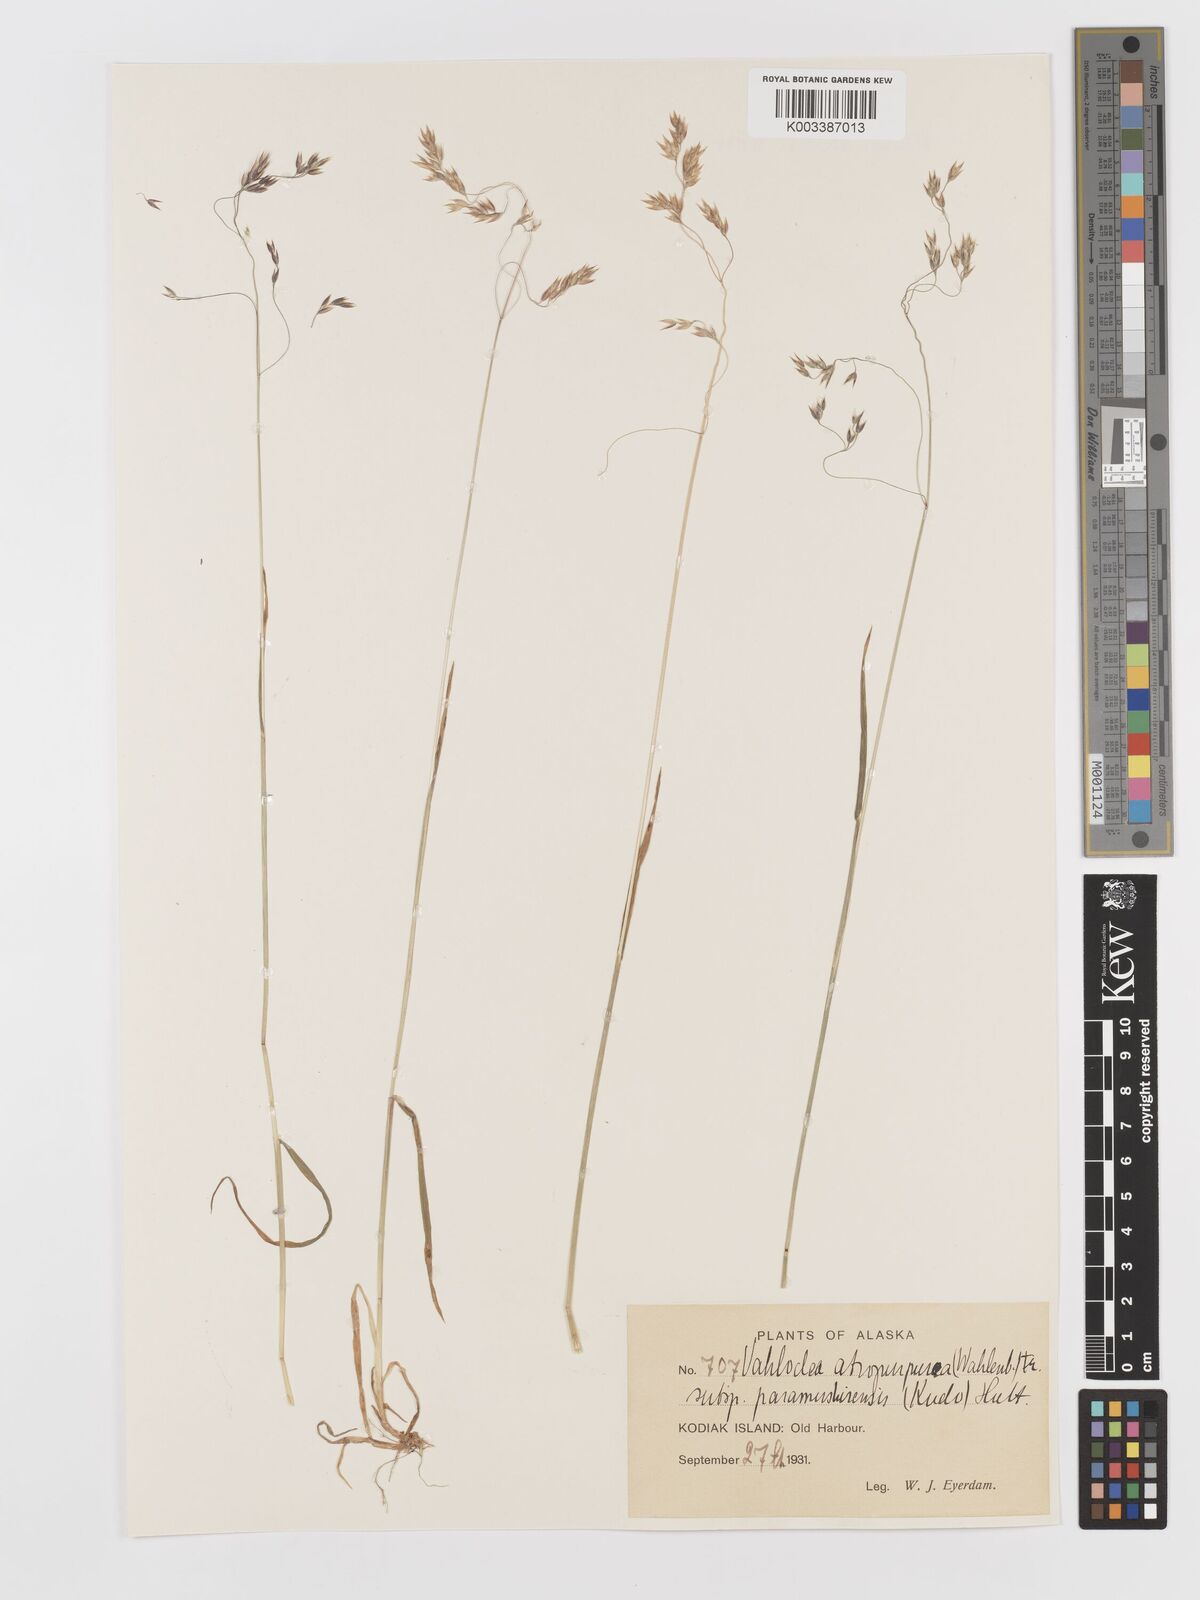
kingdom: Plantae
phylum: Tracheophyta
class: Liliopsida
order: Poales
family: Poaceae
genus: Vahlodea
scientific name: Vahlodea atropurpurea
